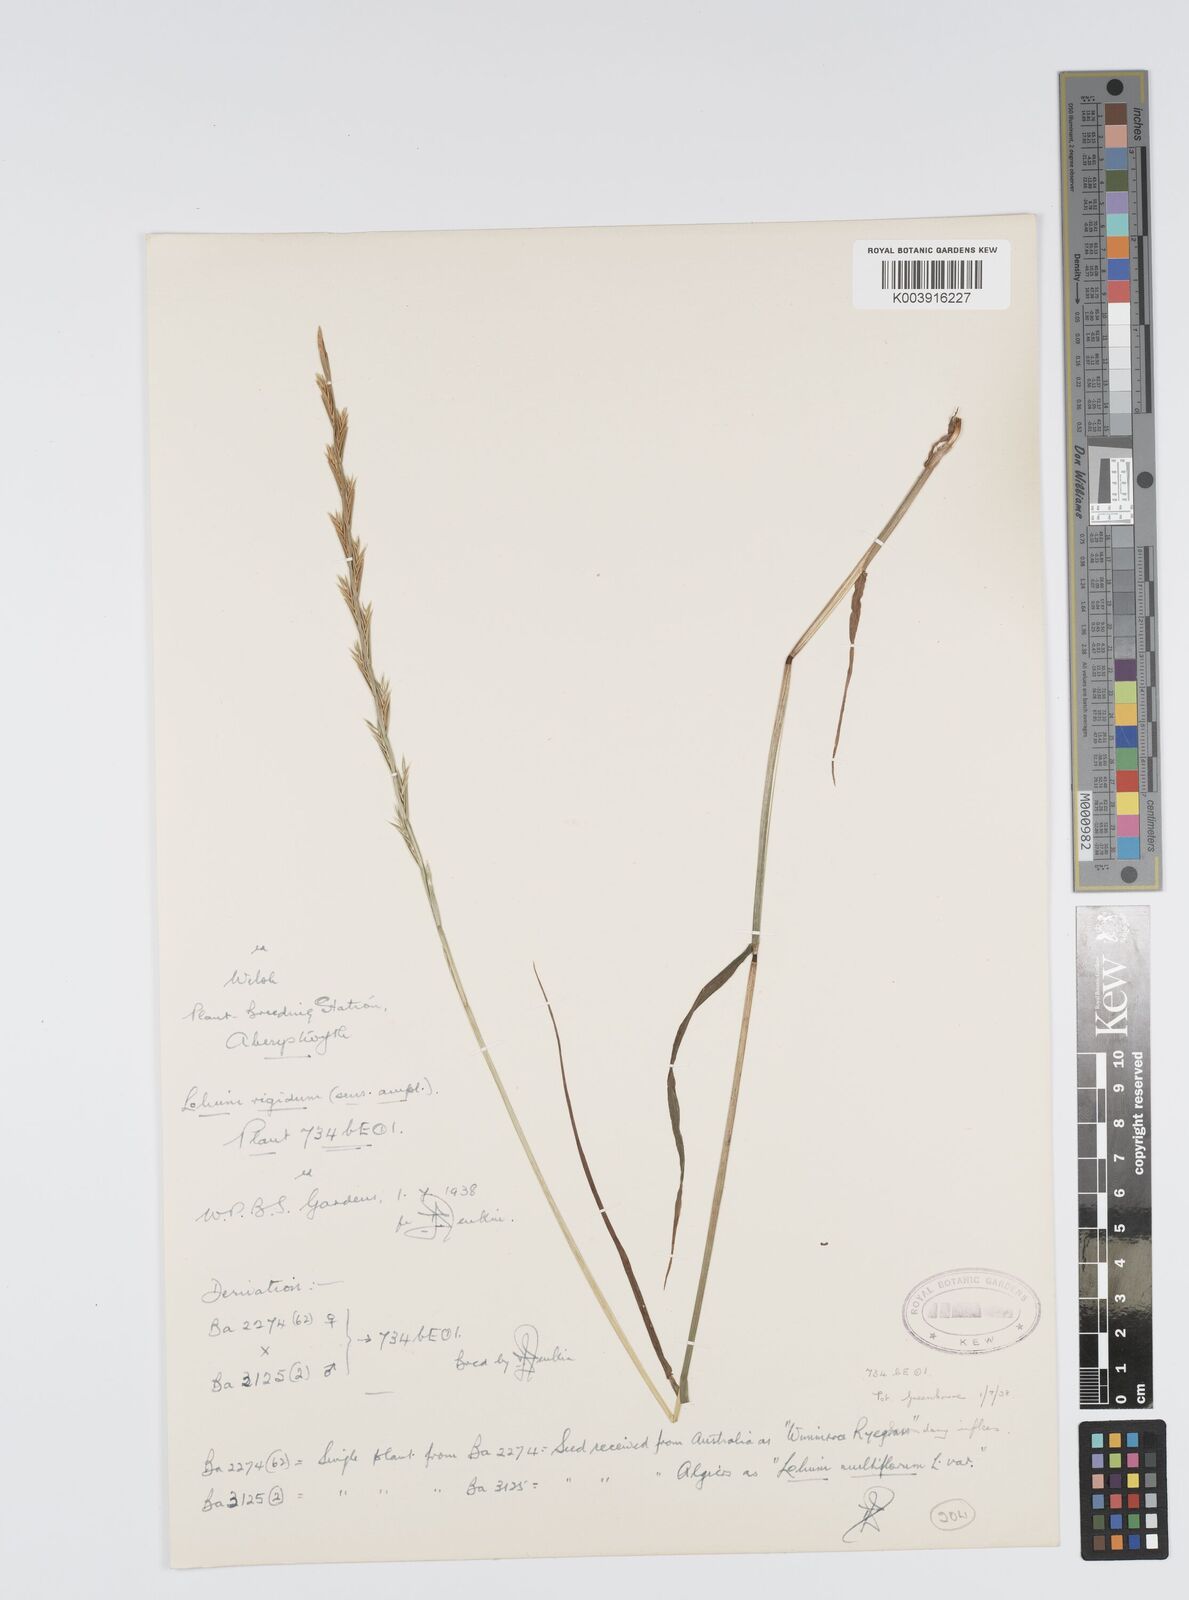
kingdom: Plantae
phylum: Tracheophyta
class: Liliopsida
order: Poales
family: Poaceae
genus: Lolium
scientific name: Lolium rigidum
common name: Wimmera ryegrass
